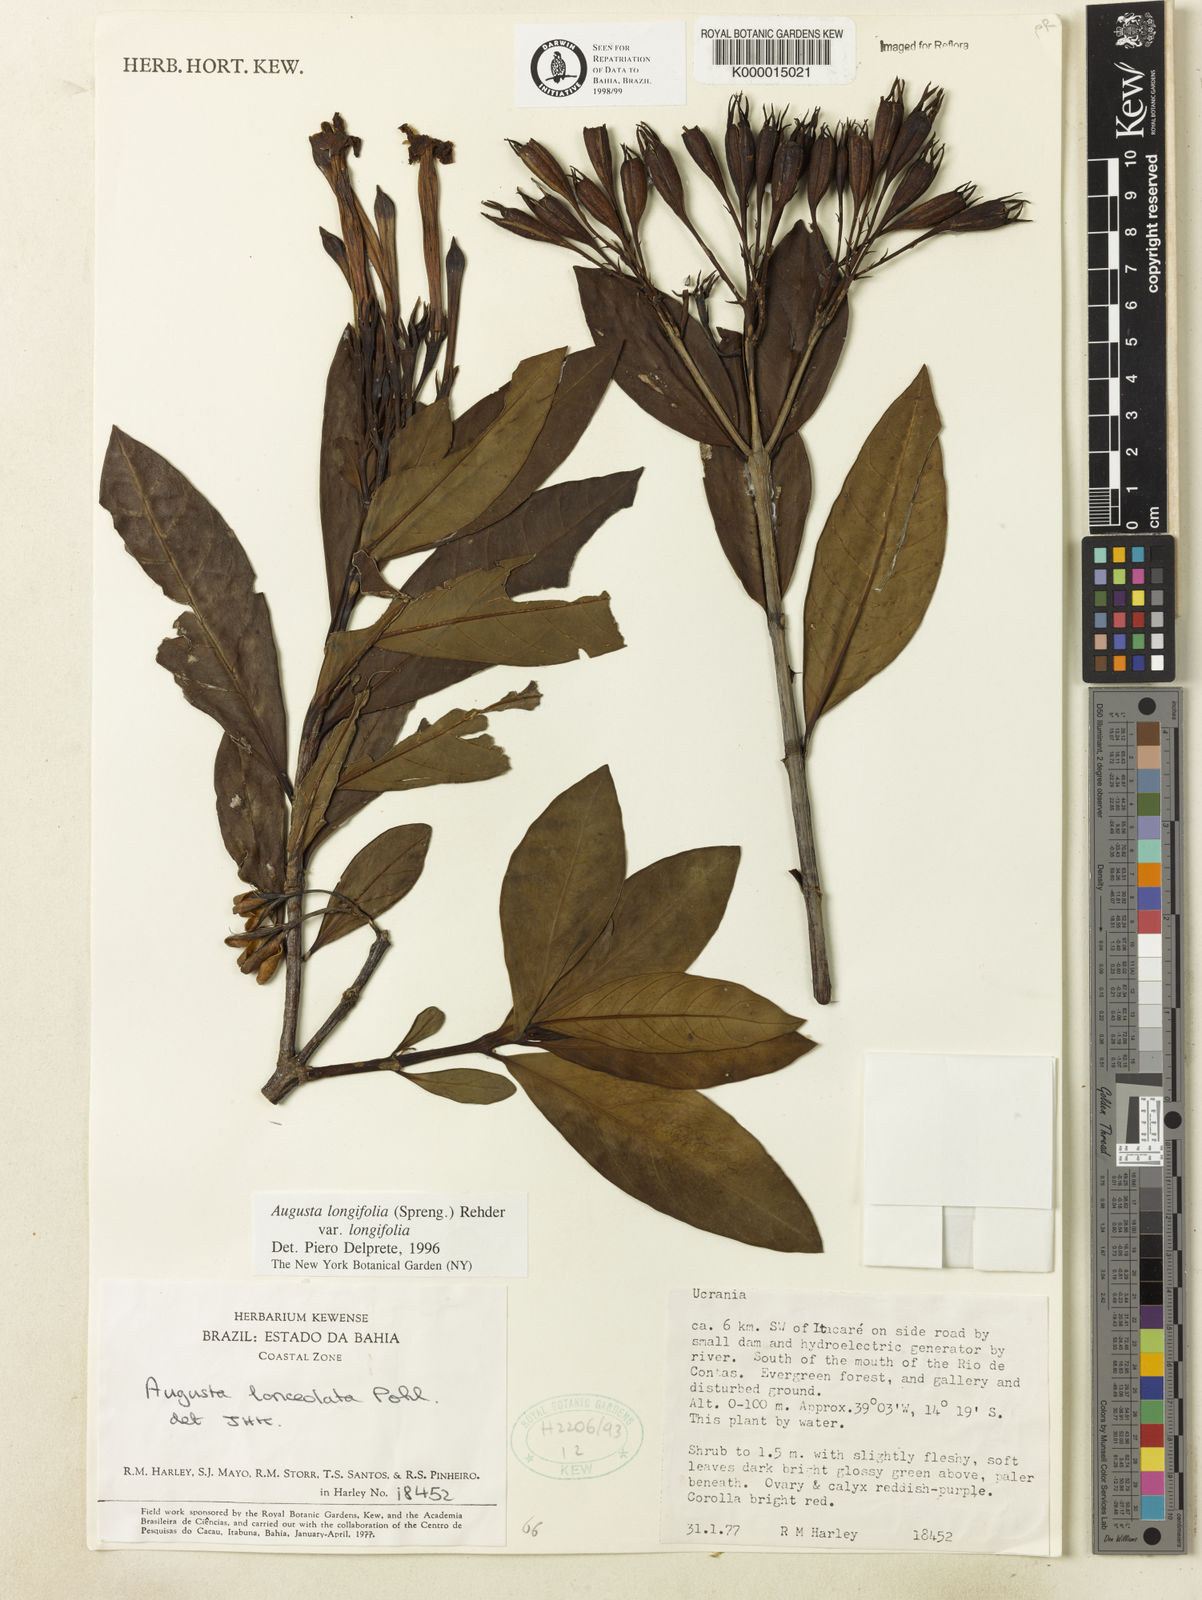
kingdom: Plantae
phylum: Tracheophyta
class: Magnoliopsida
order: Gentianales
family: Rubiaceae
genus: Augusta
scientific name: Augusta longifolia
